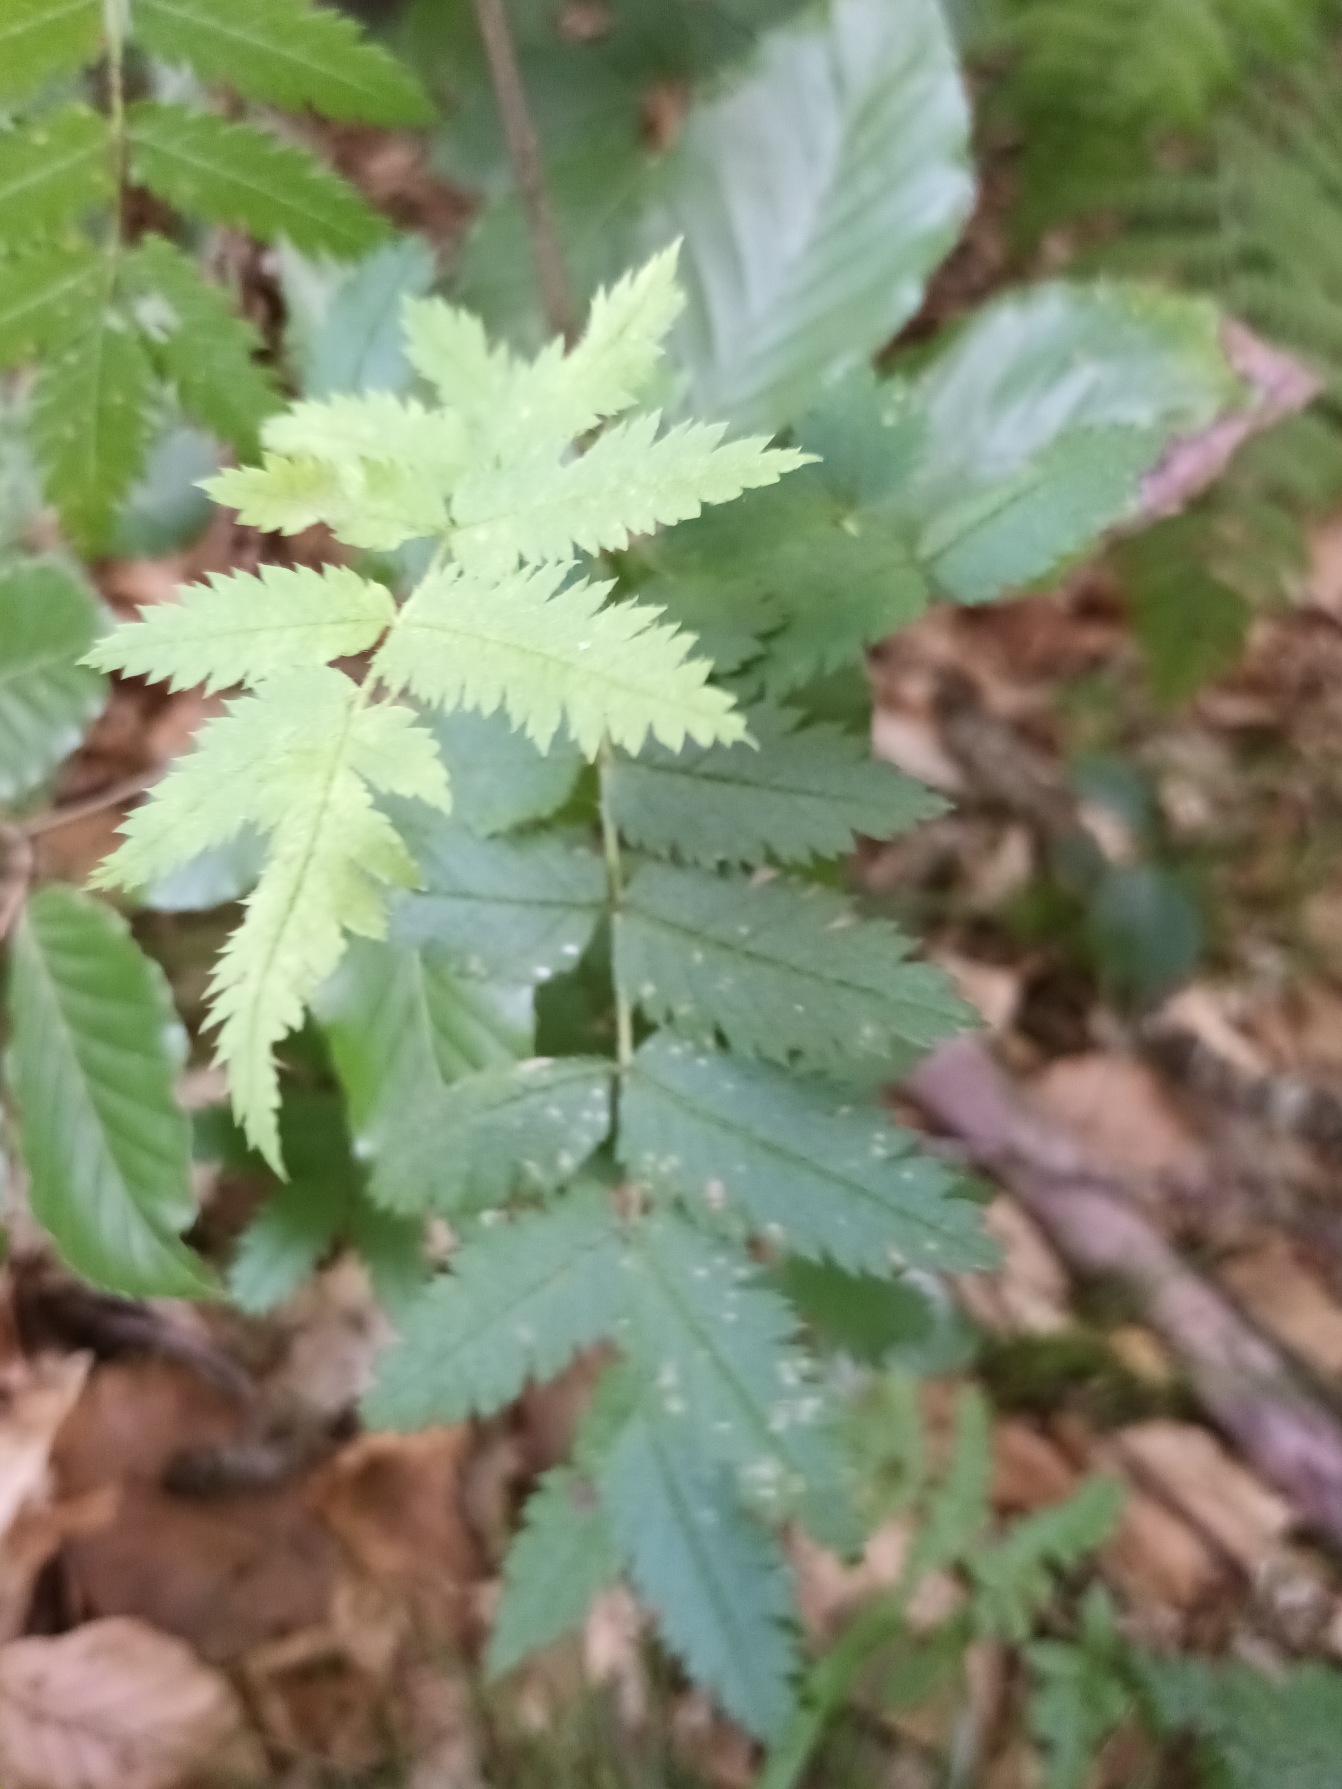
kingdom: Plantae
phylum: Tracheophyta
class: Magnoliopsida
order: Rosales
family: Rosaceae
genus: Sorbus
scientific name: Sorbus aucuparia
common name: Almindelig røn
